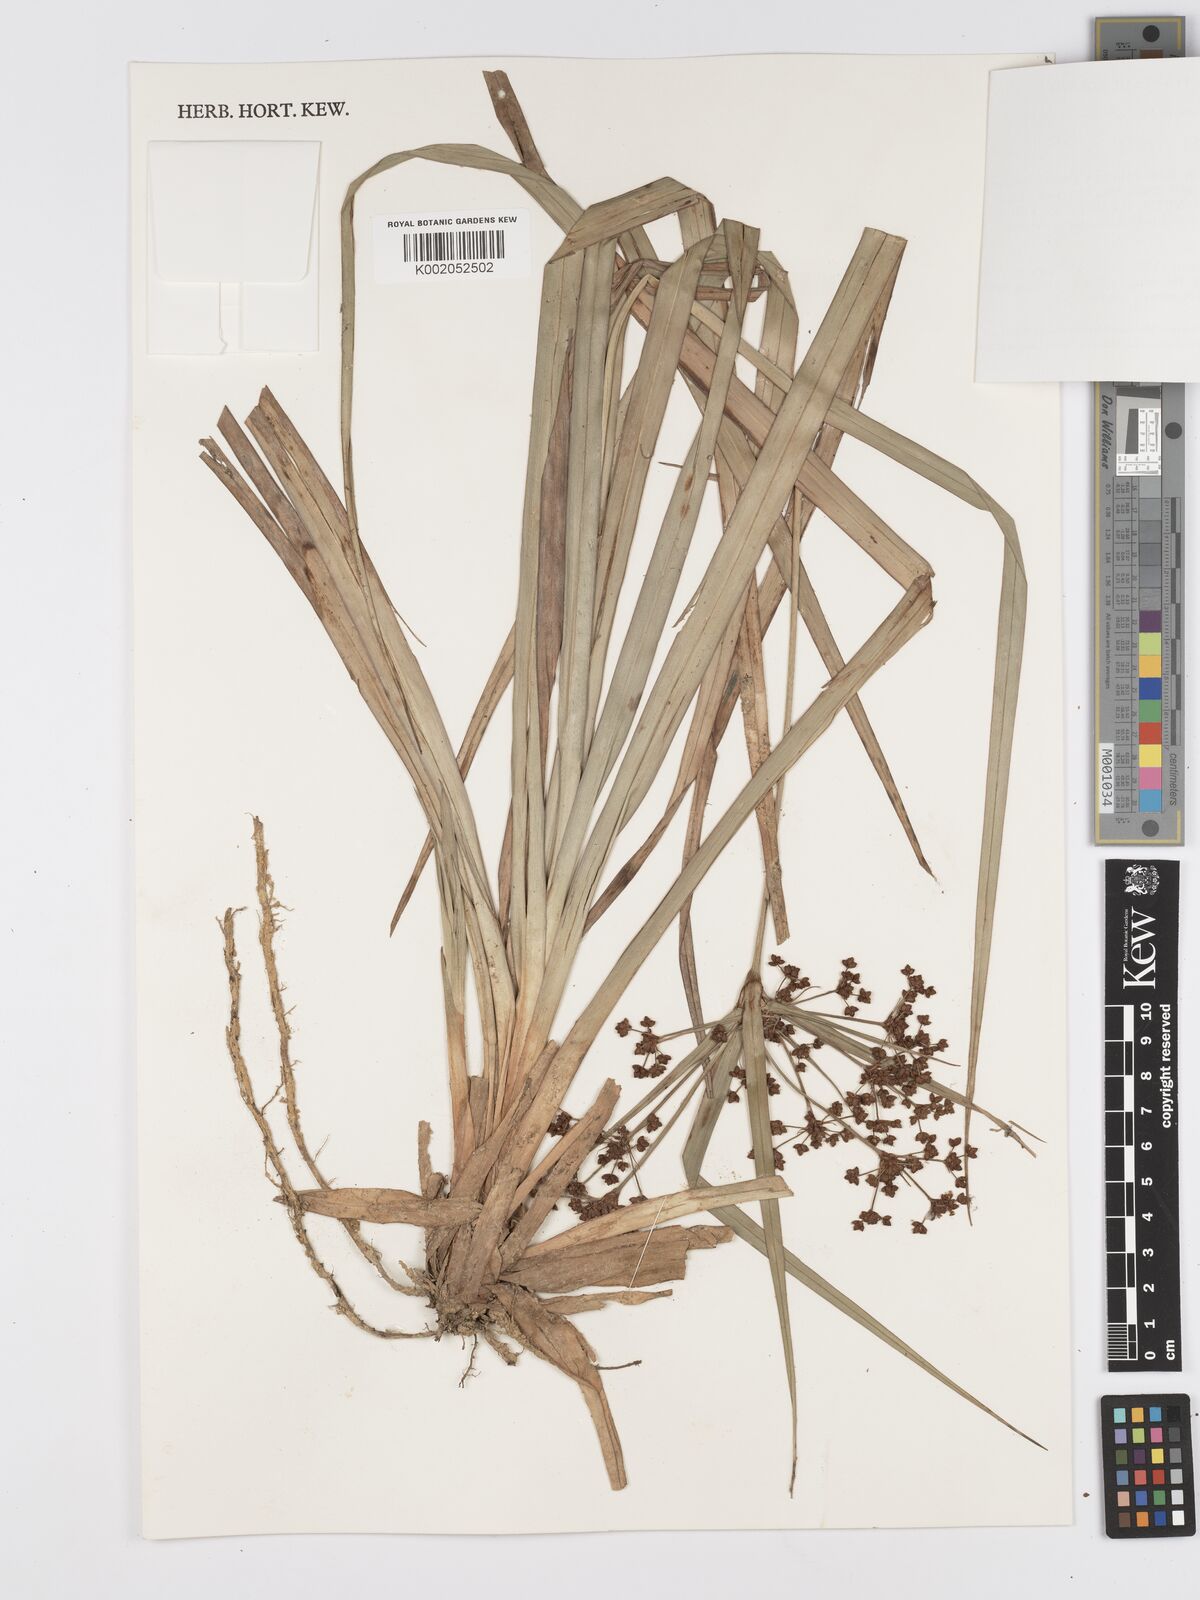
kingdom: Plantae
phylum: Tracheophyta
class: Liliopsida
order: Poales
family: Cyperaceae
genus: Scirpus
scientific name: Scirpus ternatanus
